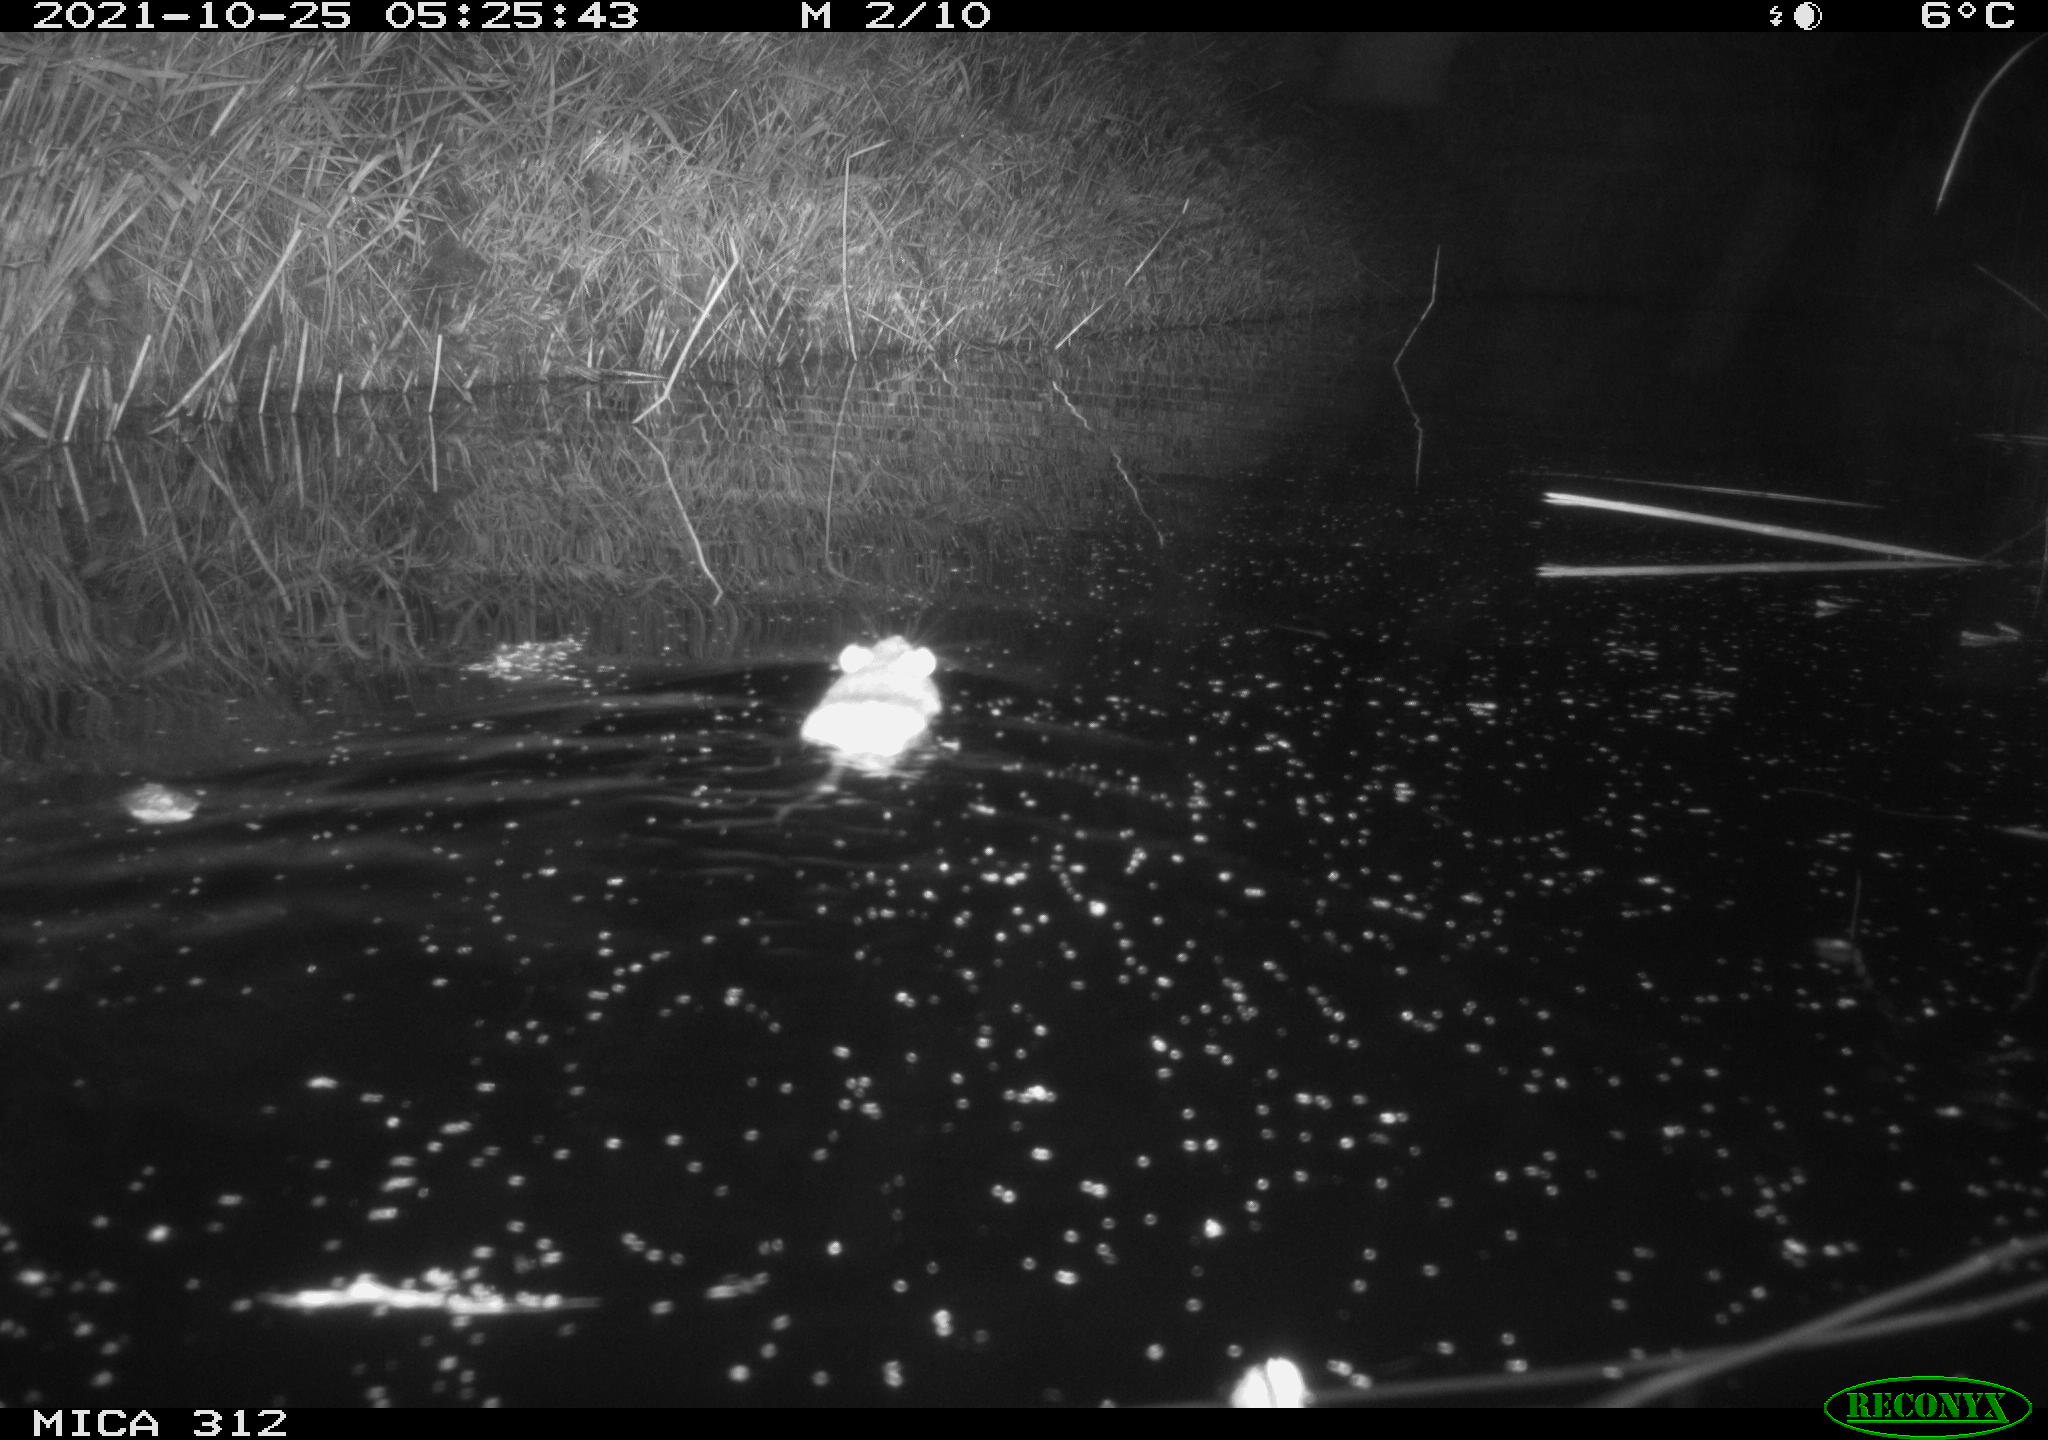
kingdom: Animalia
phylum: Chordata
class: Mammalia
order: Rodentia
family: Muridae
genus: Rattus
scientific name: Rattus norvegicus
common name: Brown rat
